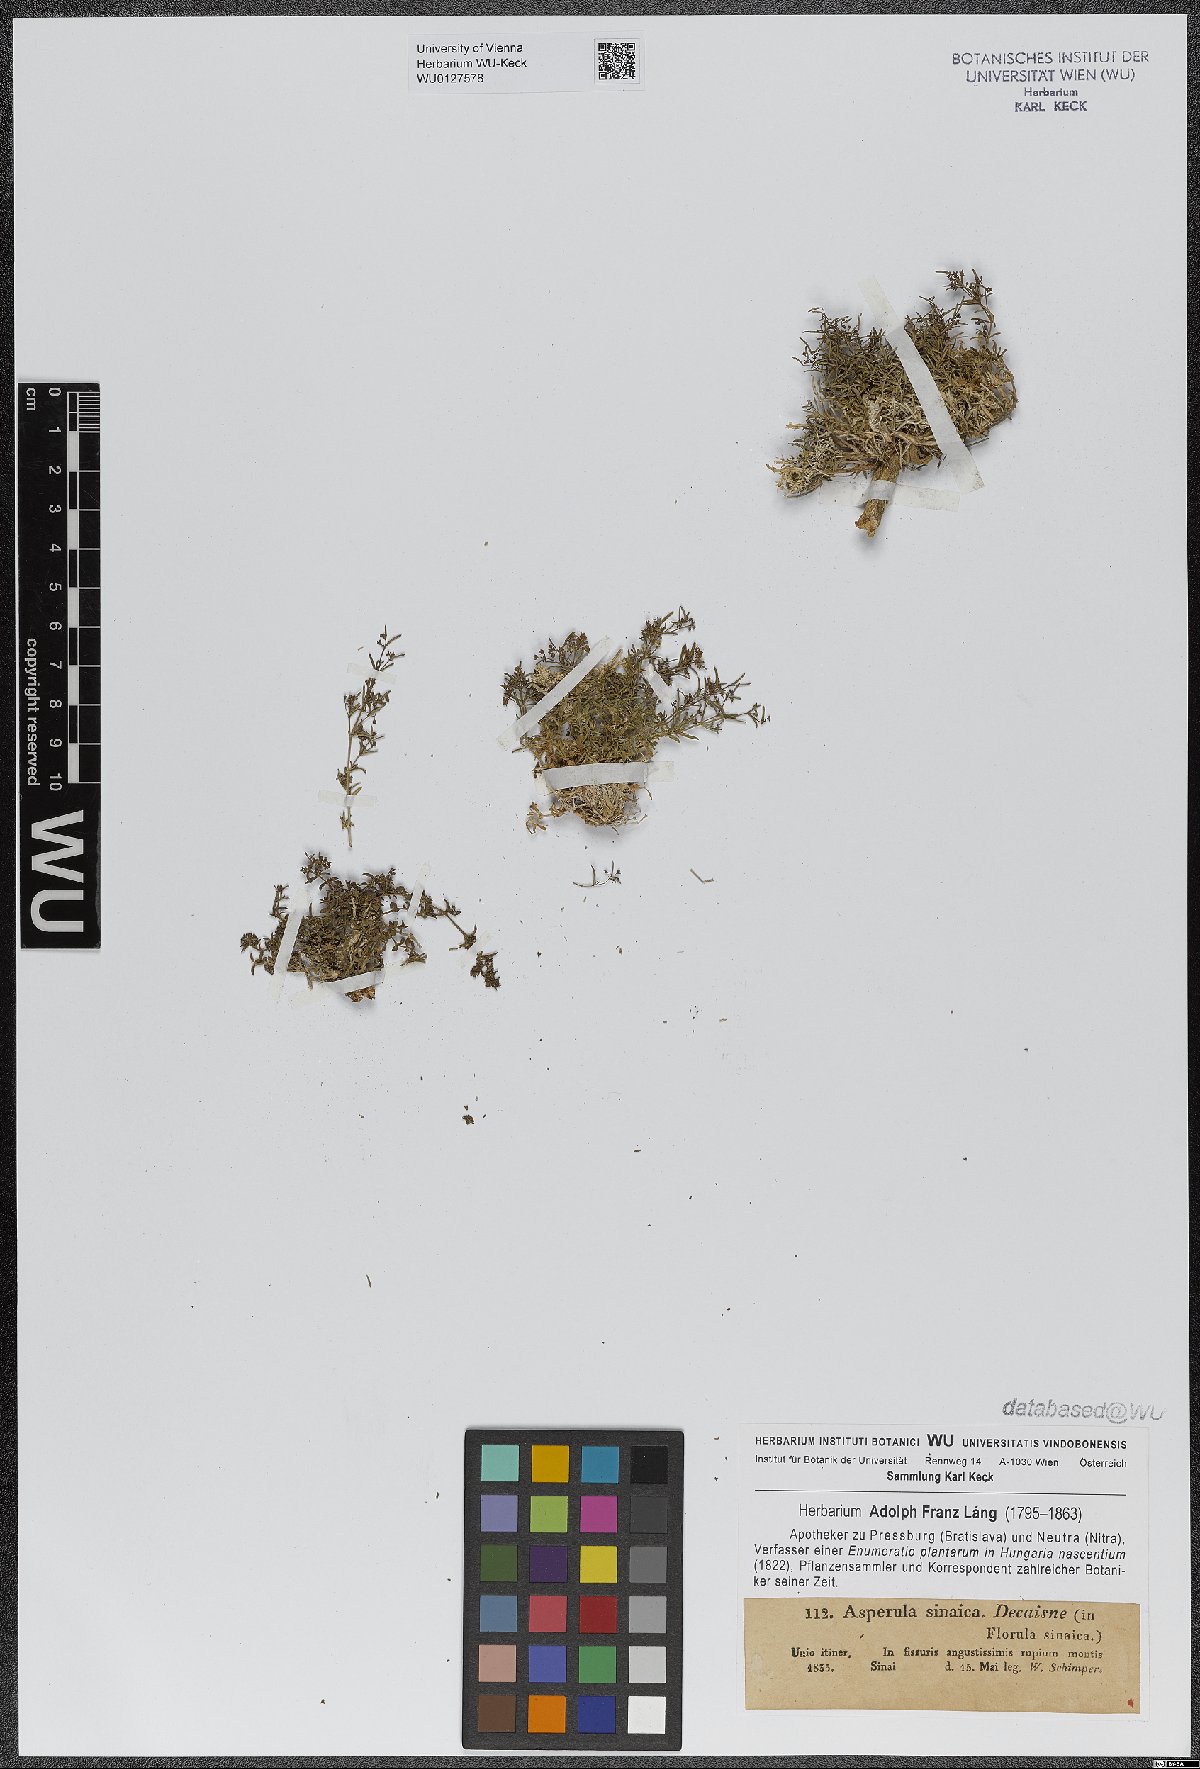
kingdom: Plantae
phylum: Tracheophyta
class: Magnoliopsida
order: Gentianales
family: Rubiaceae
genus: Galium
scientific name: Galium sinaicum
